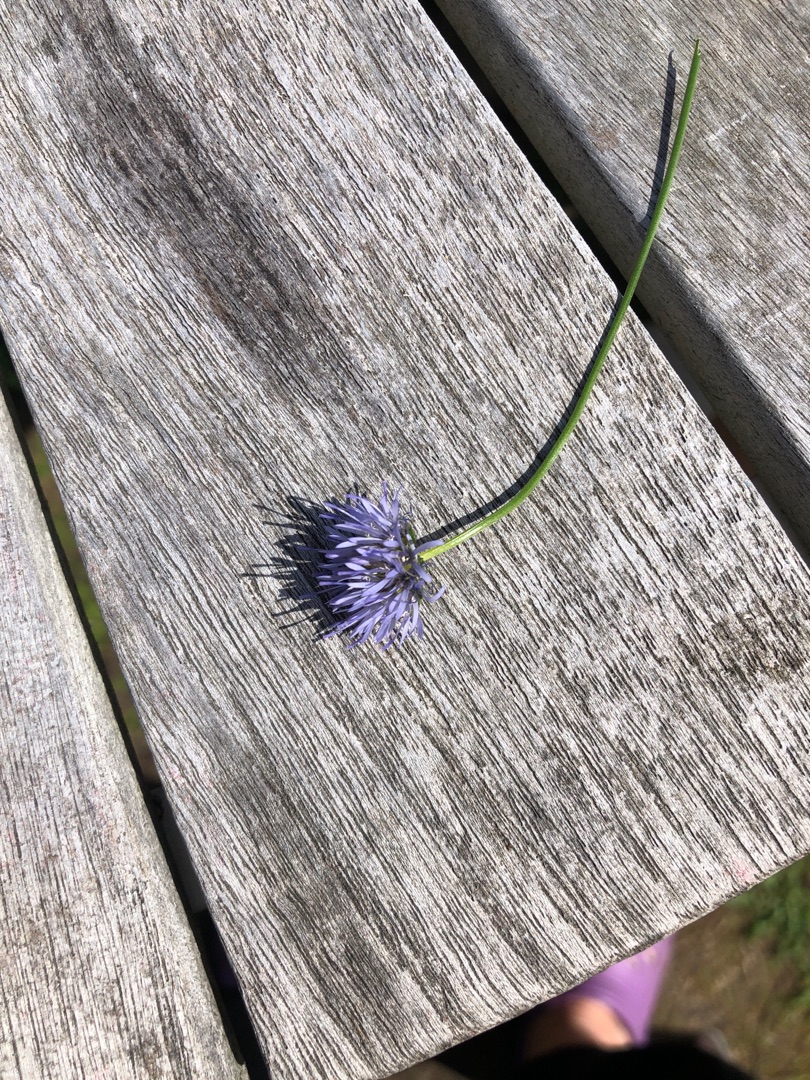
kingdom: Plantae
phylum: Tracheophyta
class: Magnoliopsida
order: Asterales
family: Campanulaceae
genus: Jasione
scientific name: Jasione montana
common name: Blåmunke
